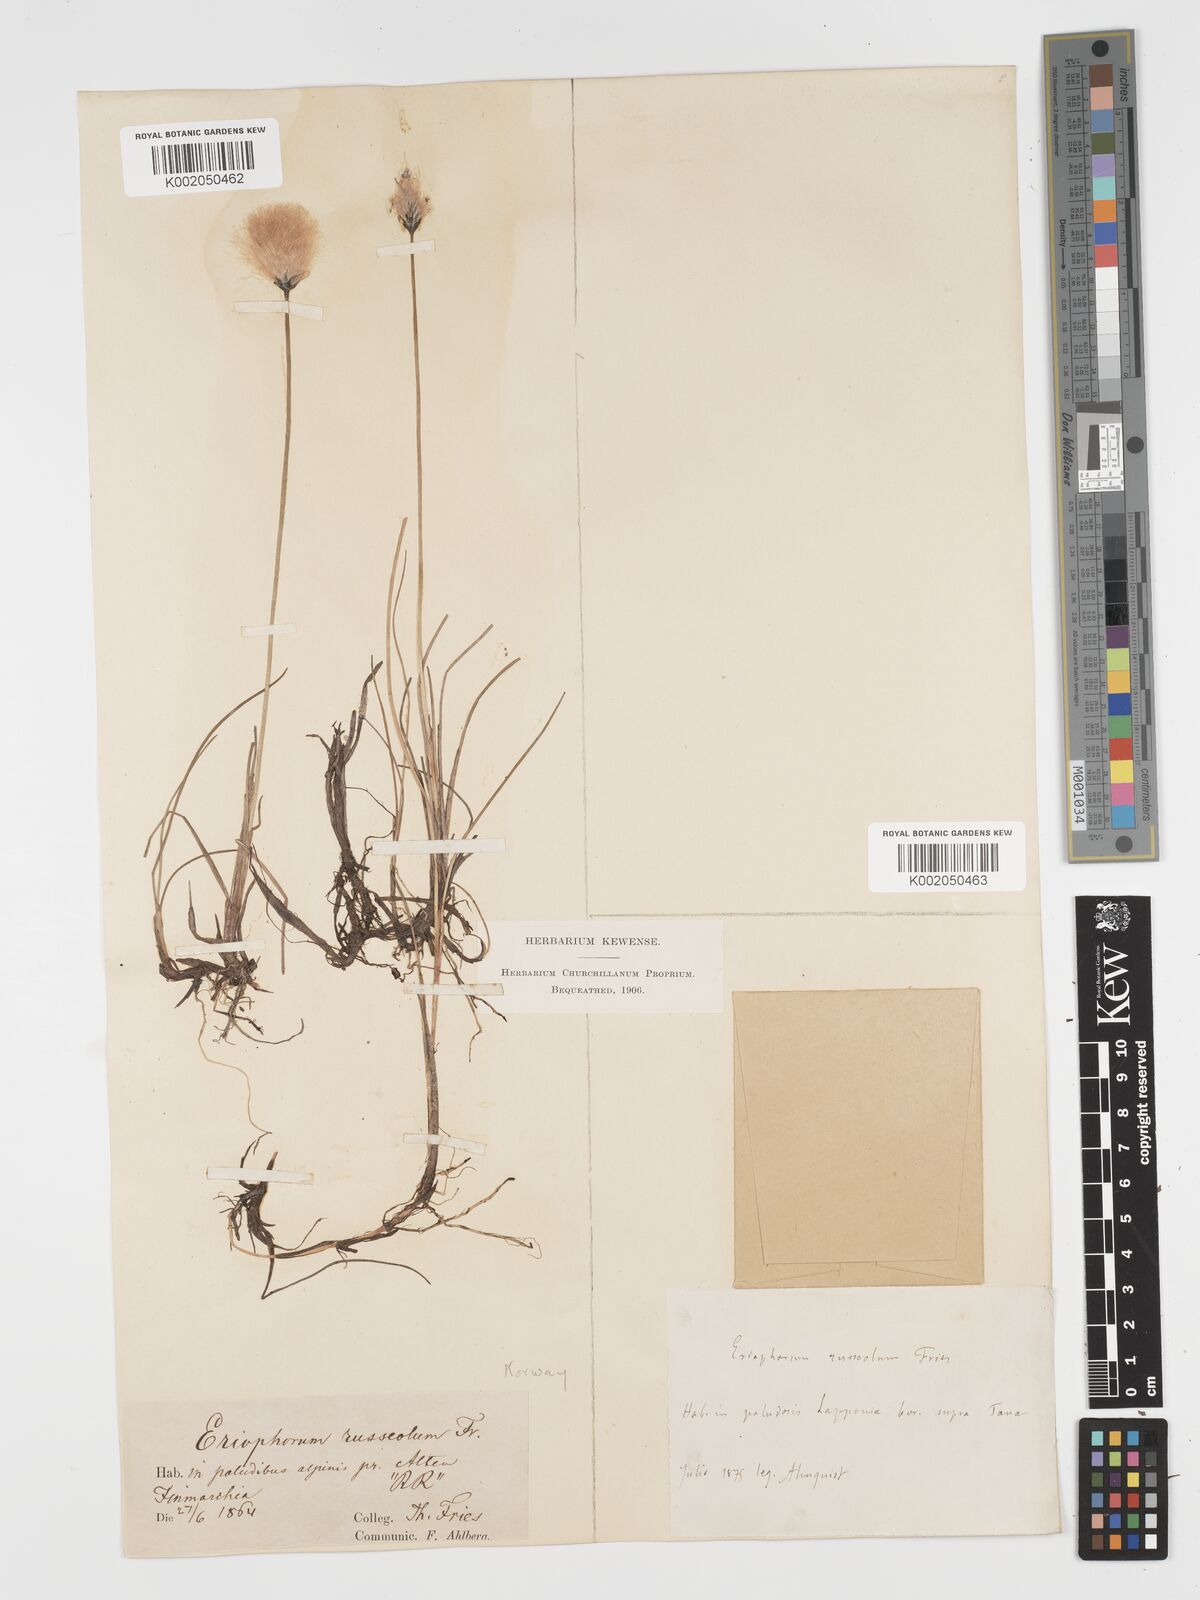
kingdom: Plantae
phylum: Tracheophyta
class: Liliopsida
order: Poales
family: Cyperaceae
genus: Eriophorum
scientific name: Eriophorum scheuchzeri
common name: Scheuchzer's cottongrass
